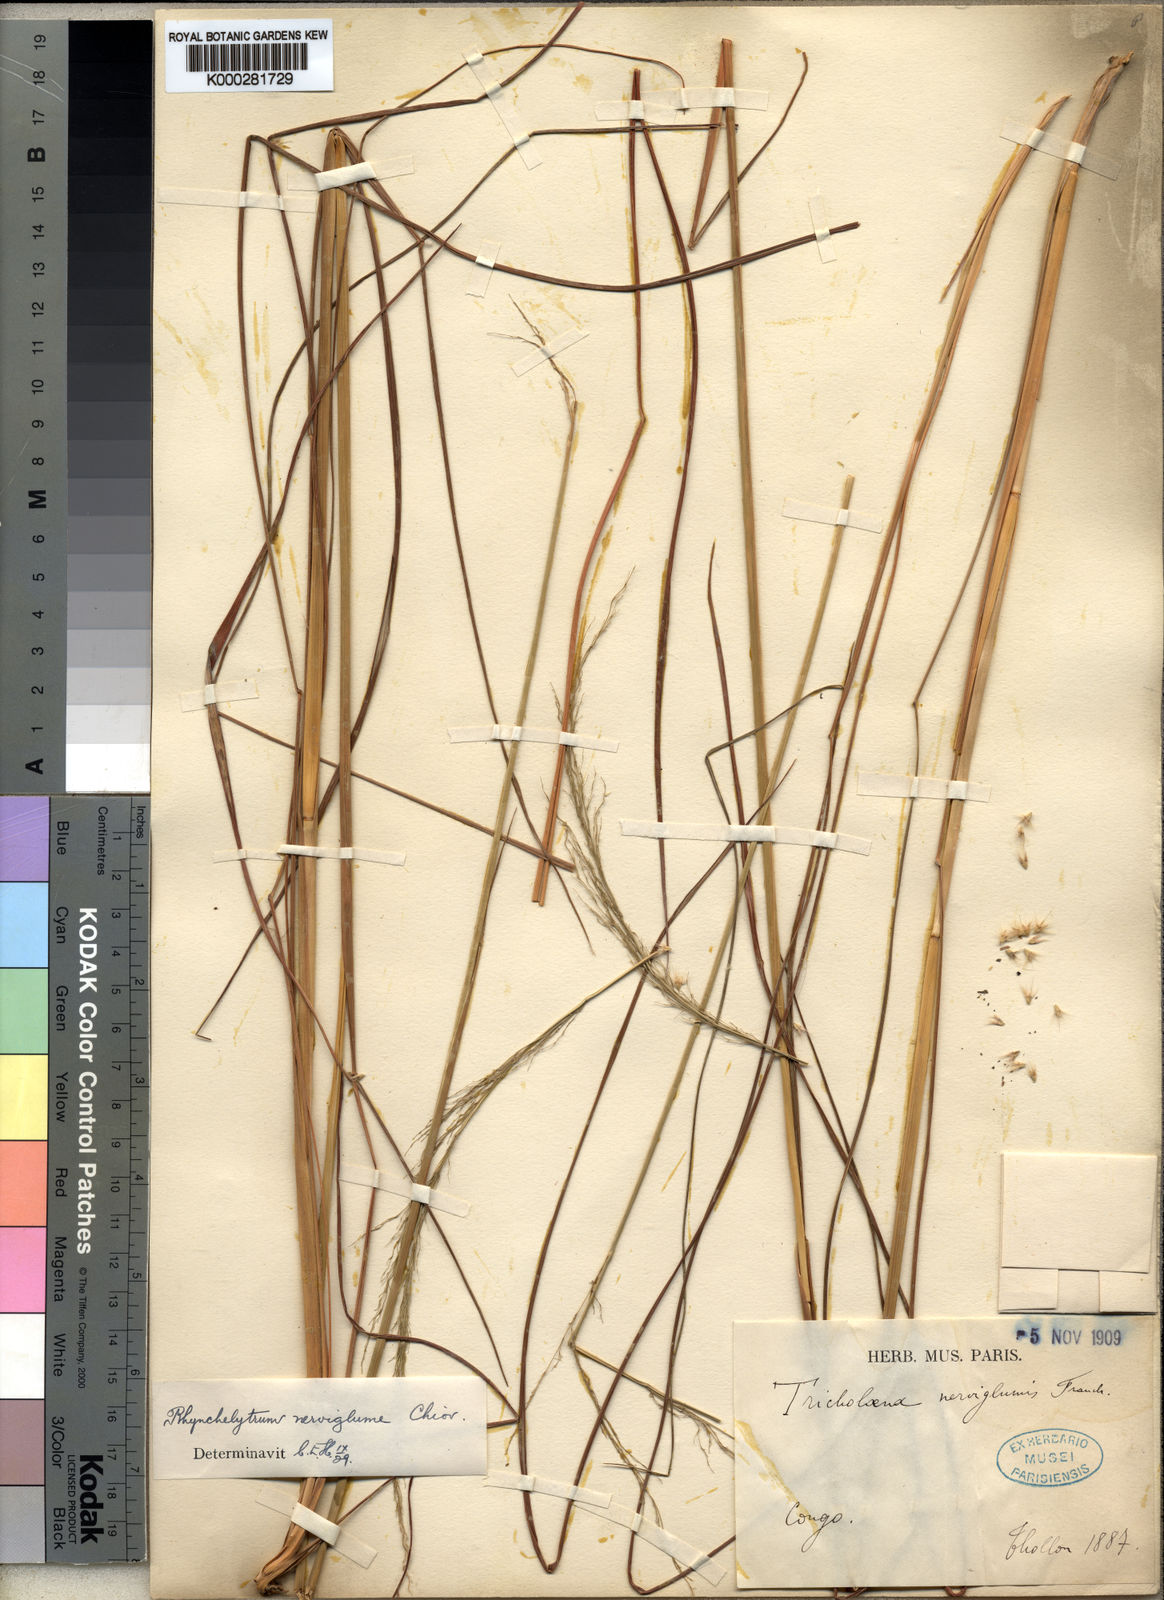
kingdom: Plantae
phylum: Tracheophyta
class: Liliopsida
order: Poales
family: Poaceae
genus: Melinis
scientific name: Melinis nerviglumis
